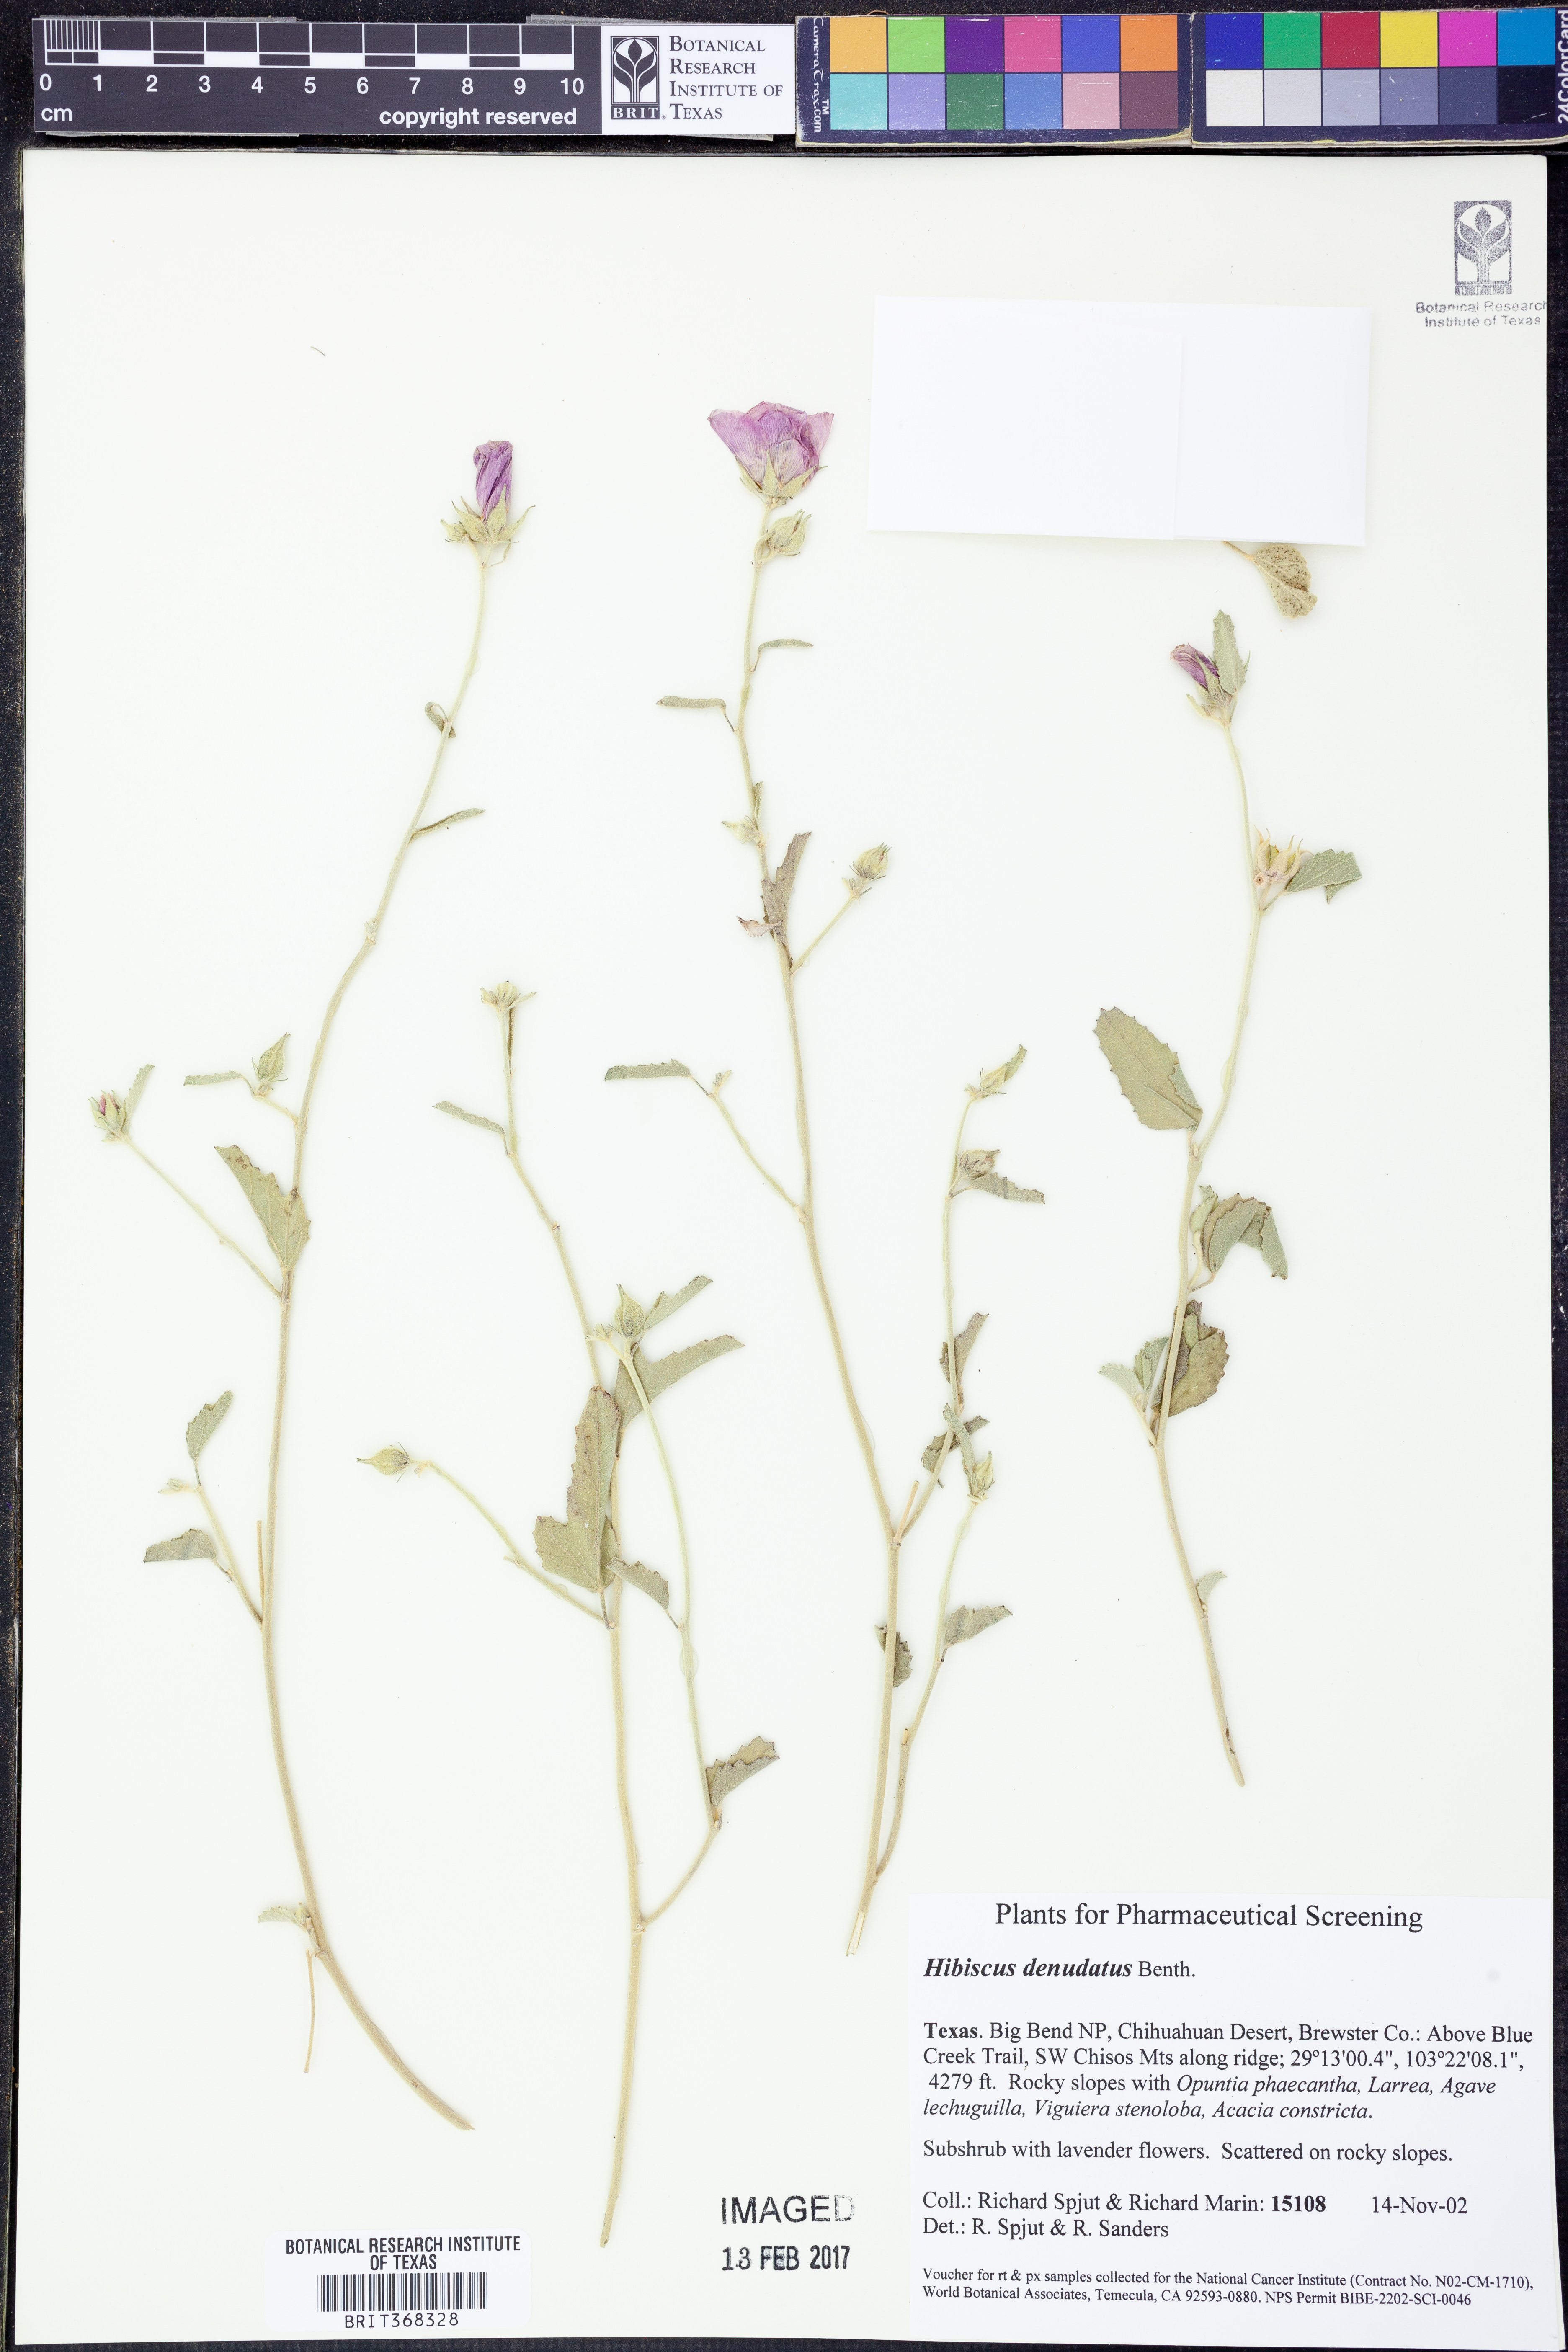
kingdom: Plantae
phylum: Tracheophyta
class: Magnoliopsida
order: Malvales
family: Malvaceae
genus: Hibiscus
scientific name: Hibiscus denudatus
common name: Paleface
